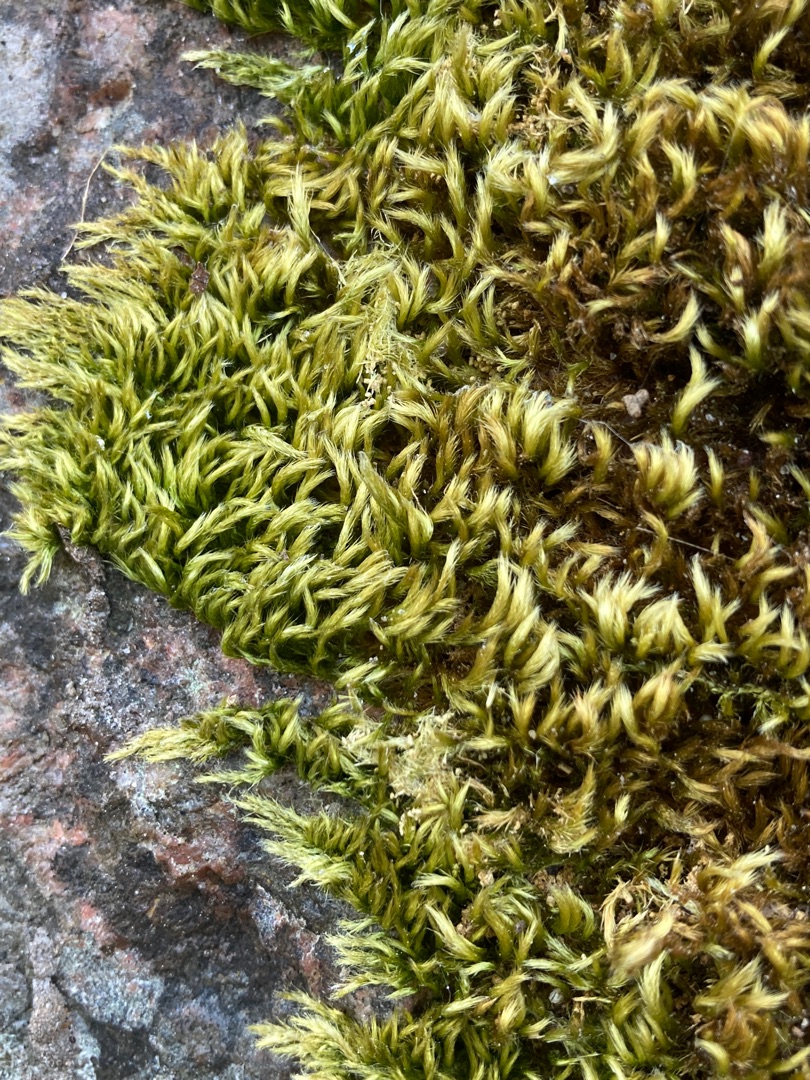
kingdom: Plantae
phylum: Bryophyta
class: Bryopsida
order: Hypnales
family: Brachytheciaceae
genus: Homalothecium
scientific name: Homalothecium sericeum
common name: Krybende silkemos
